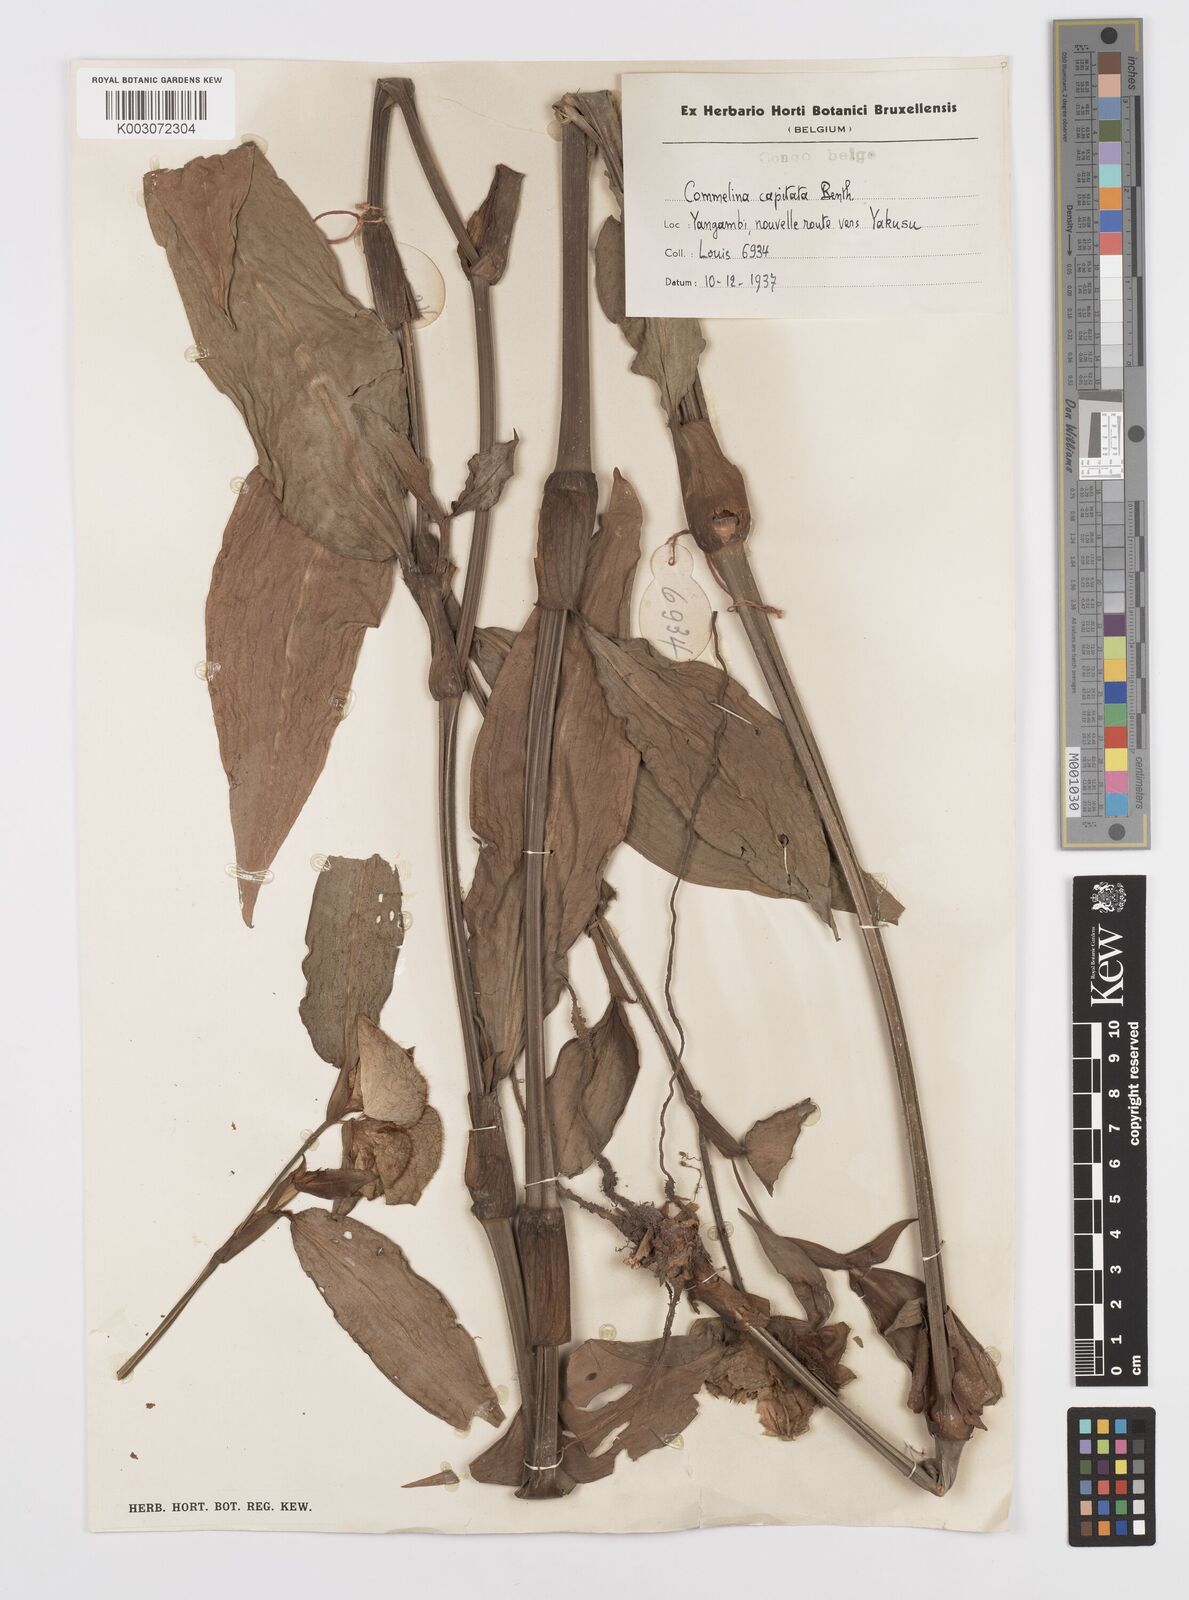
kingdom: Plantae
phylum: Tracheophyta
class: Liliopsida
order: Commelinales
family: Commelinaceae
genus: Commelina
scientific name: Commelina capitata
